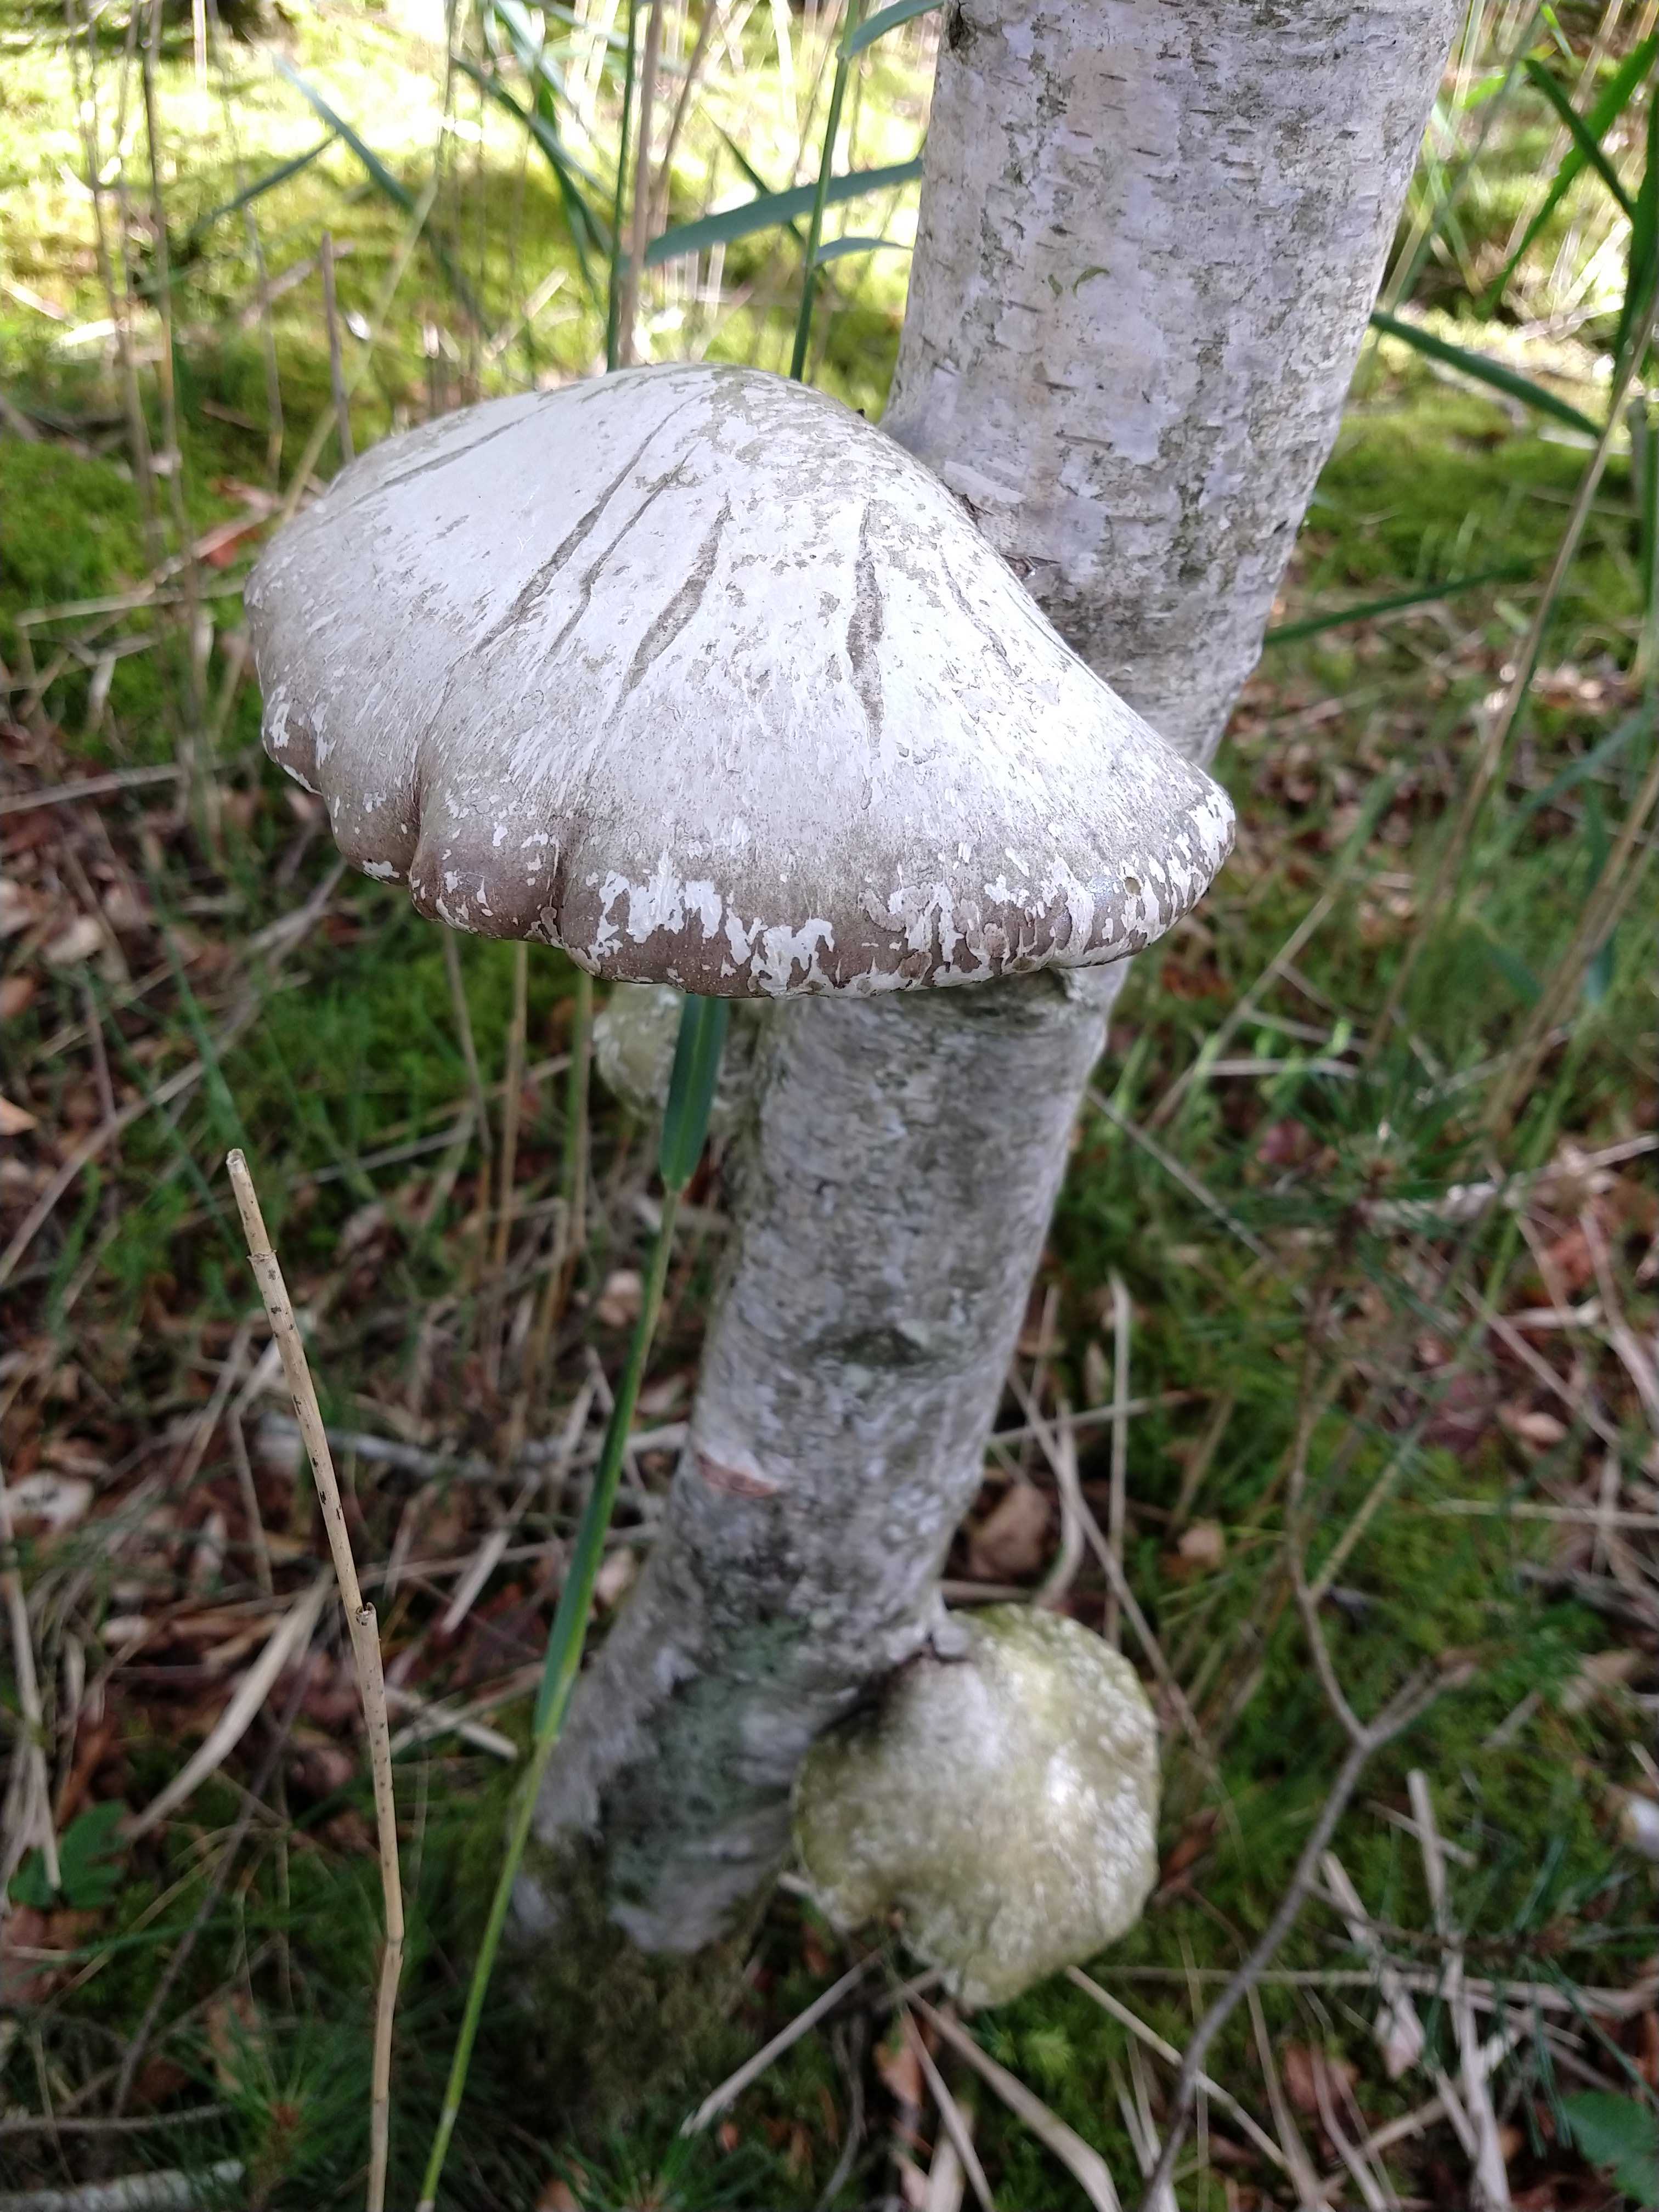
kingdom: Fungi
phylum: Basidiomycota
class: Agaricomycetes
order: Polyporales
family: Fomitopsidaceae
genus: Fomitopsis
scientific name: Fomitopsis betulina
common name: birkeporesvamp
